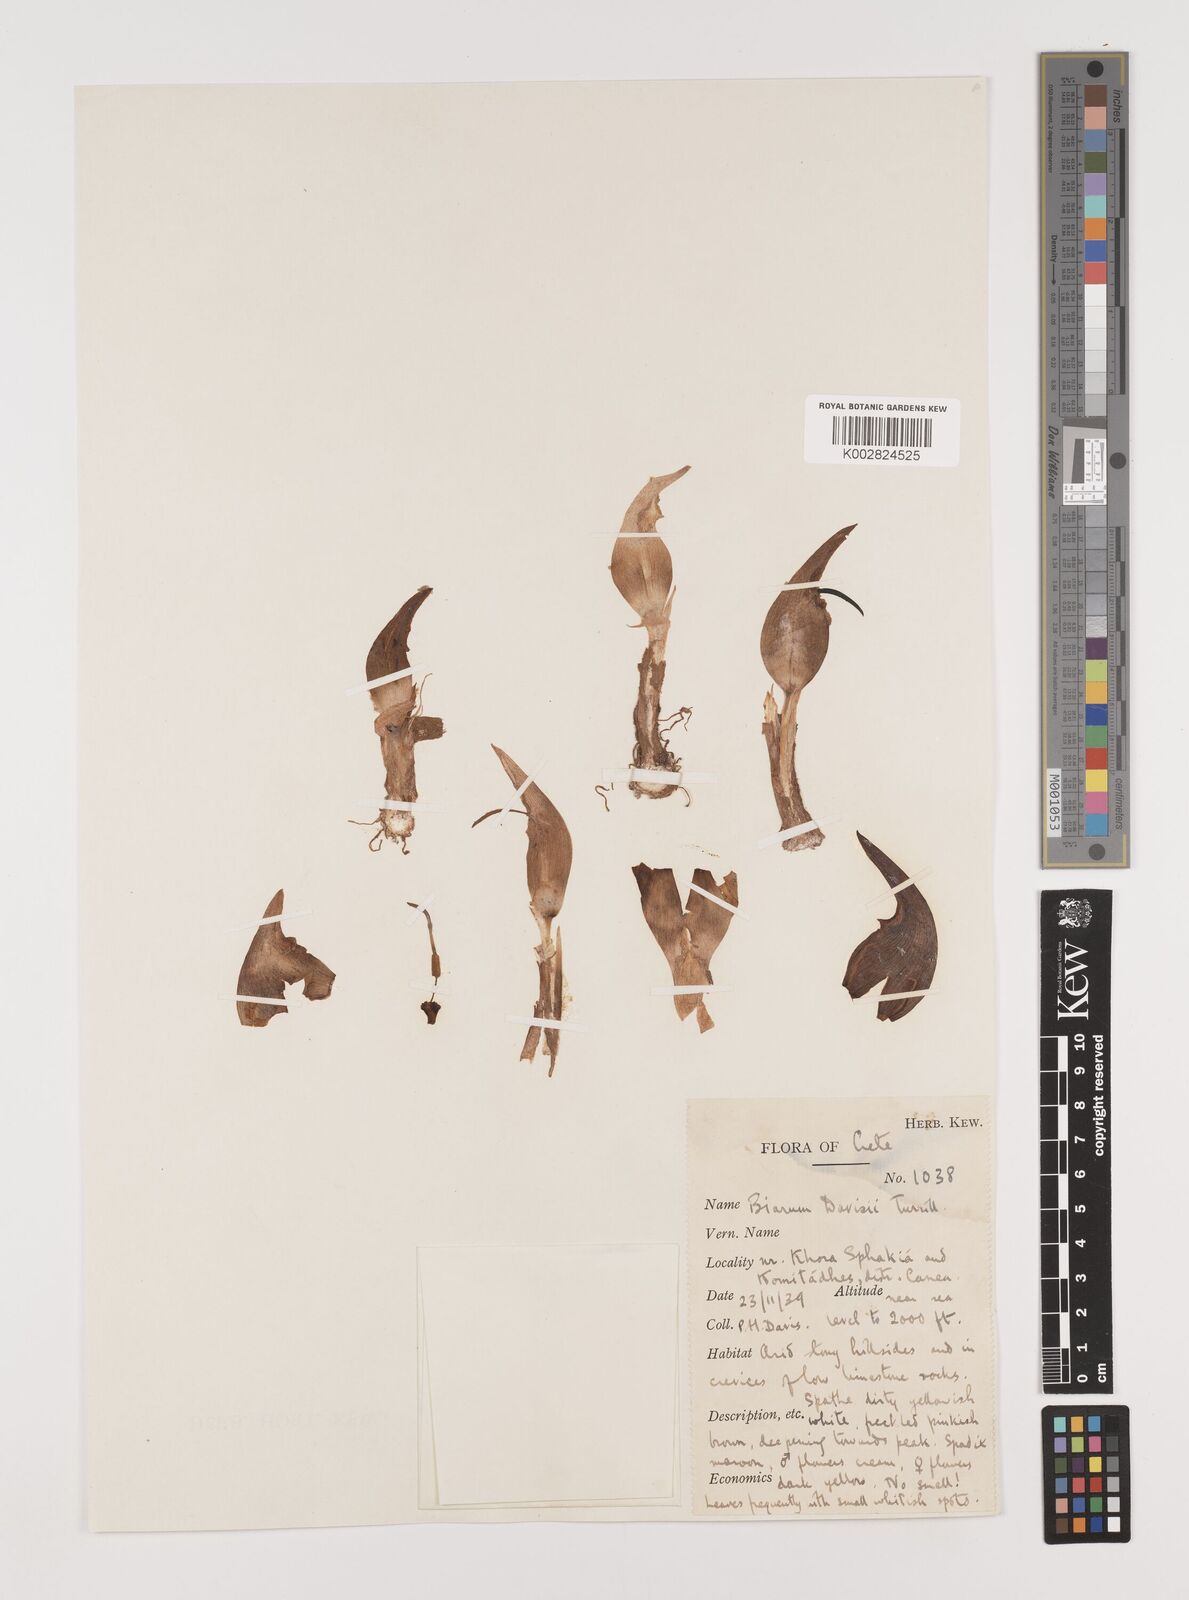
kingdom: Plantae
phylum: Tracheophyta
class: Liliopsida
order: Alismatales
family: Araceae
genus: Biarum
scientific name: Biarum davisii
